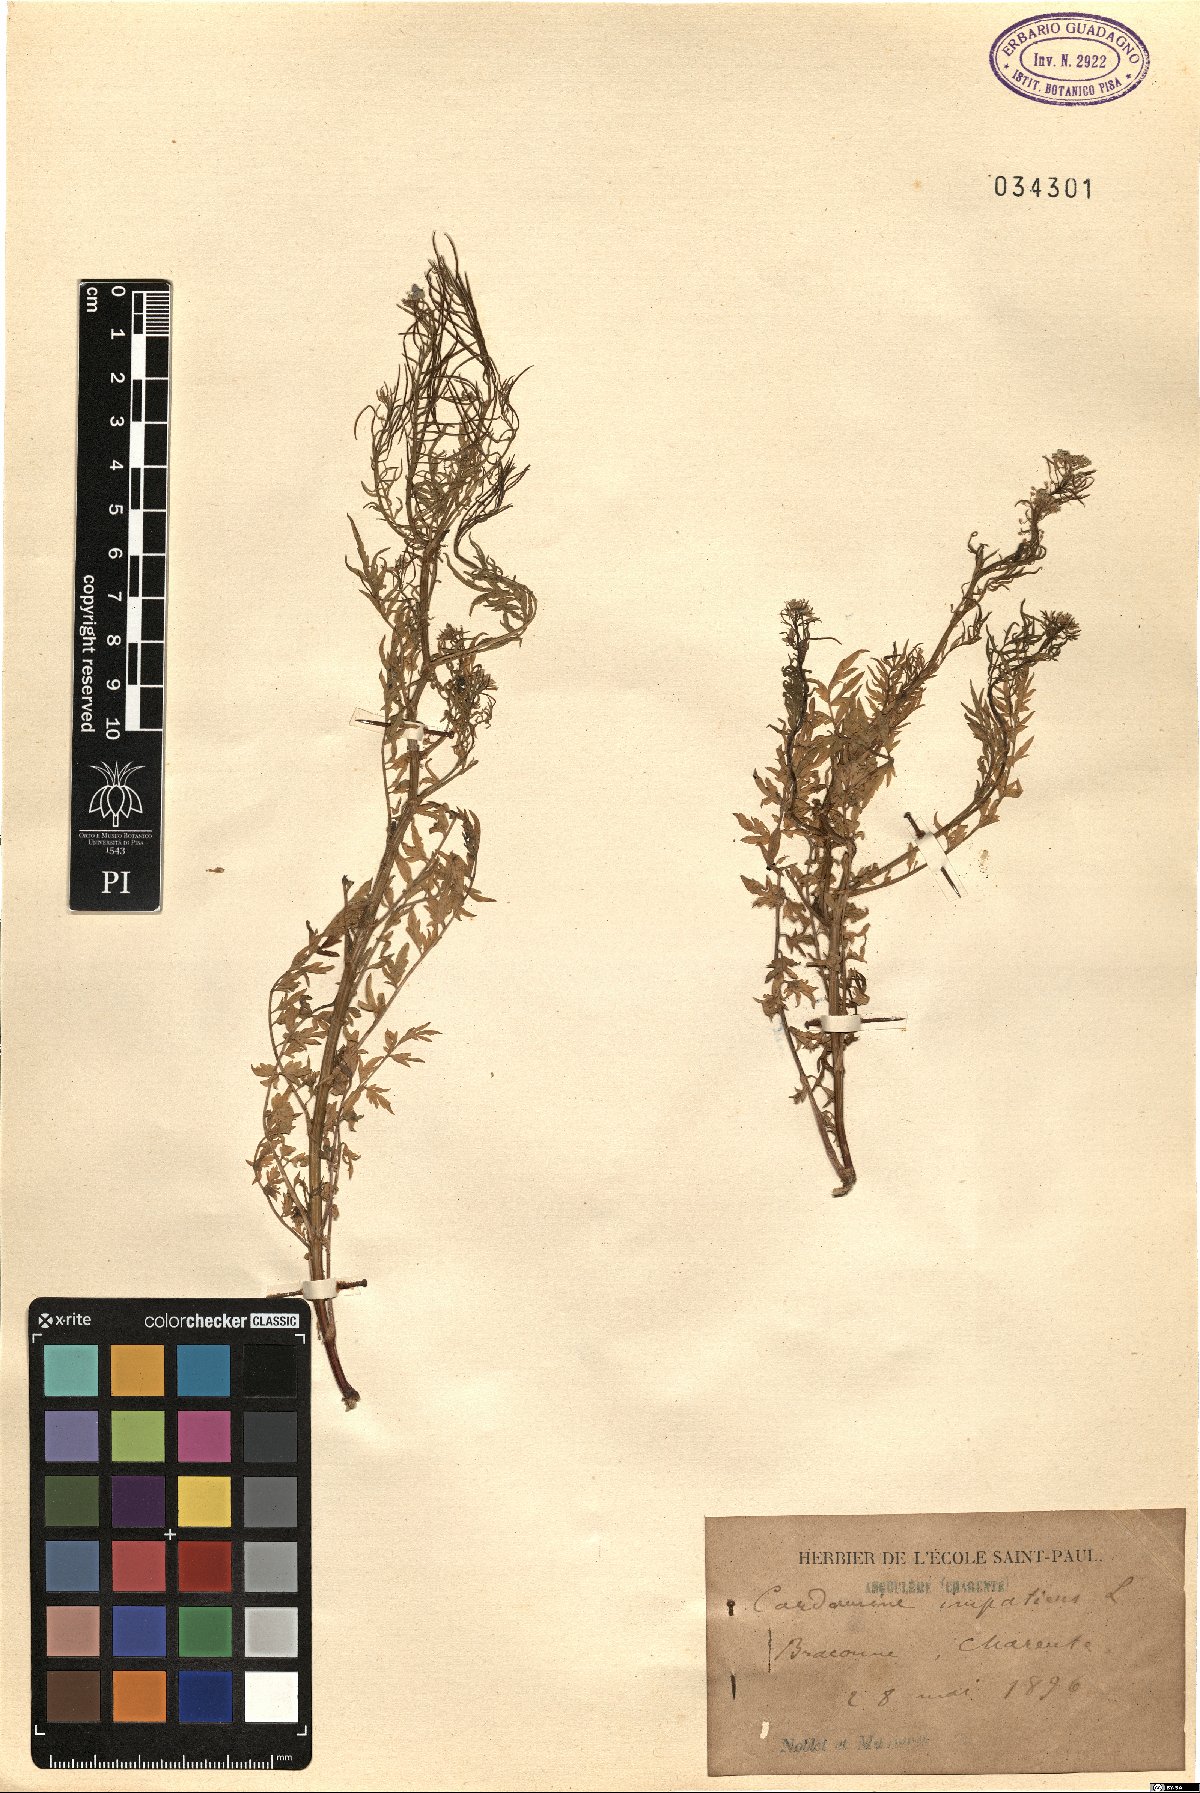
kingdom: Plantae
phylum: Tracheophyta
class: Magnoliopsida
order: Brassicales
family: Brassicaceae
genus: Cardamine
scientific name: Cardamine impatiens
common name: Narrow-leaved bitter-cress
